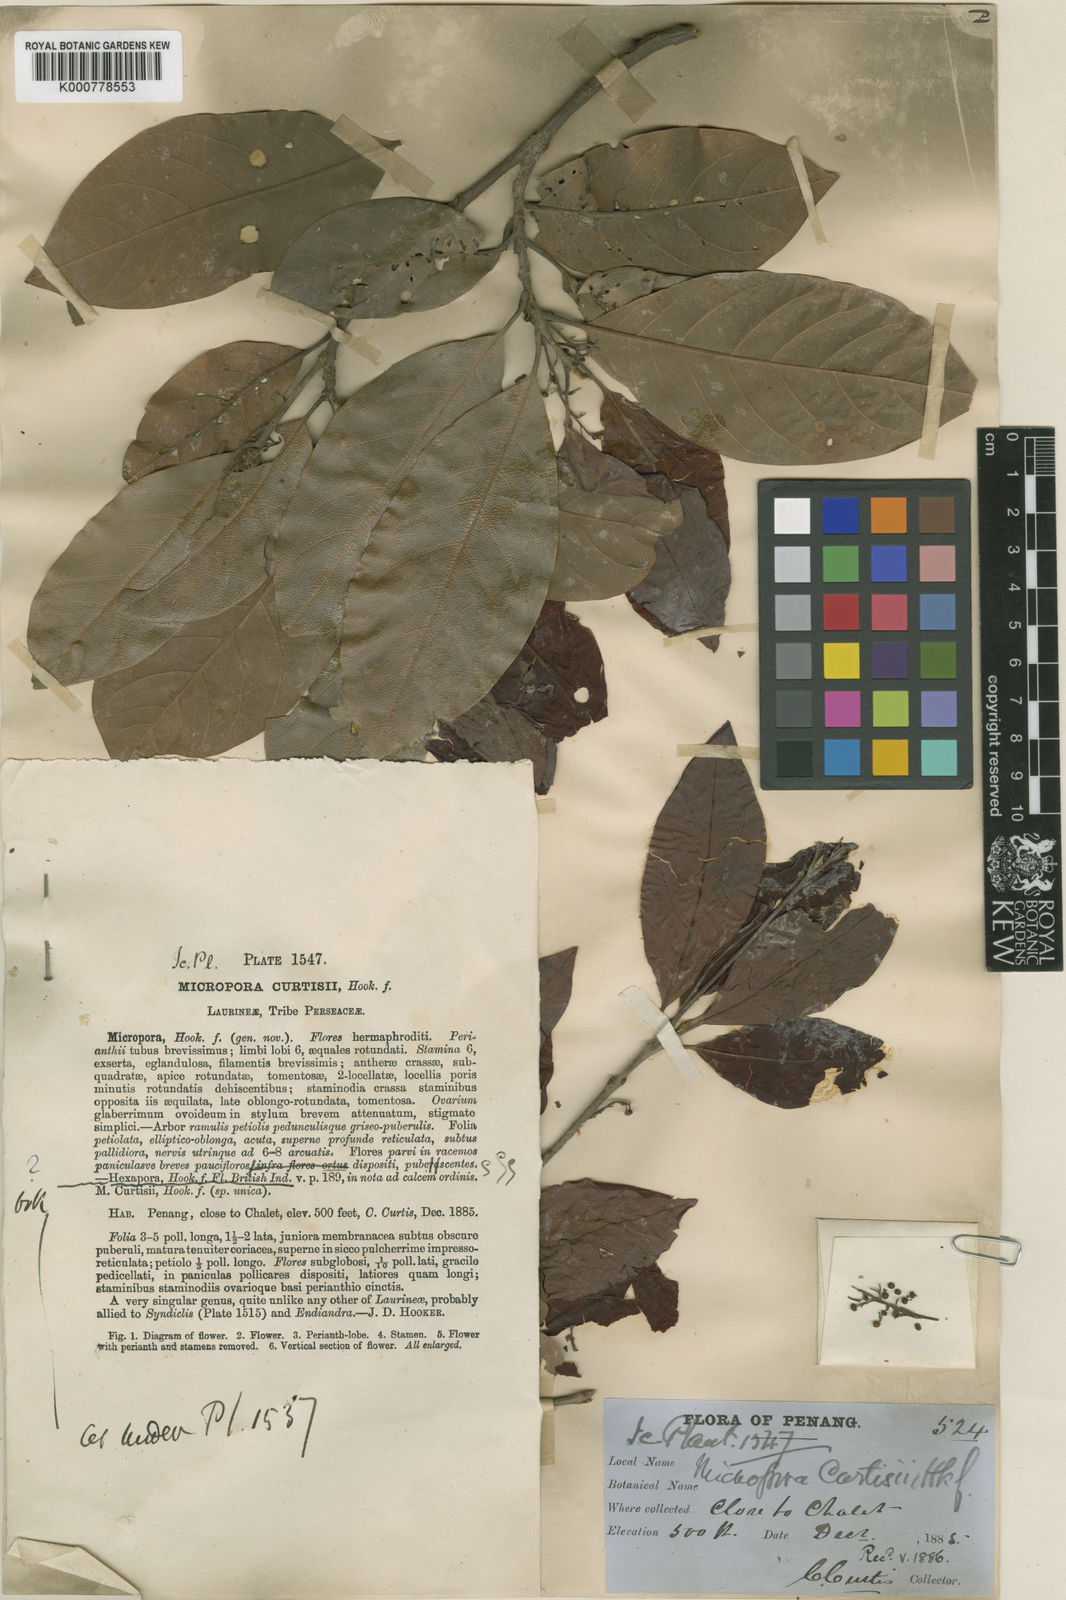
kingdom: Plantae
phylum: Tracheophyta
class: Magnoliopsida
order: Laurales
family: Lauraceae
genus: Hexapora
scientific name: Hexapora curtisii
